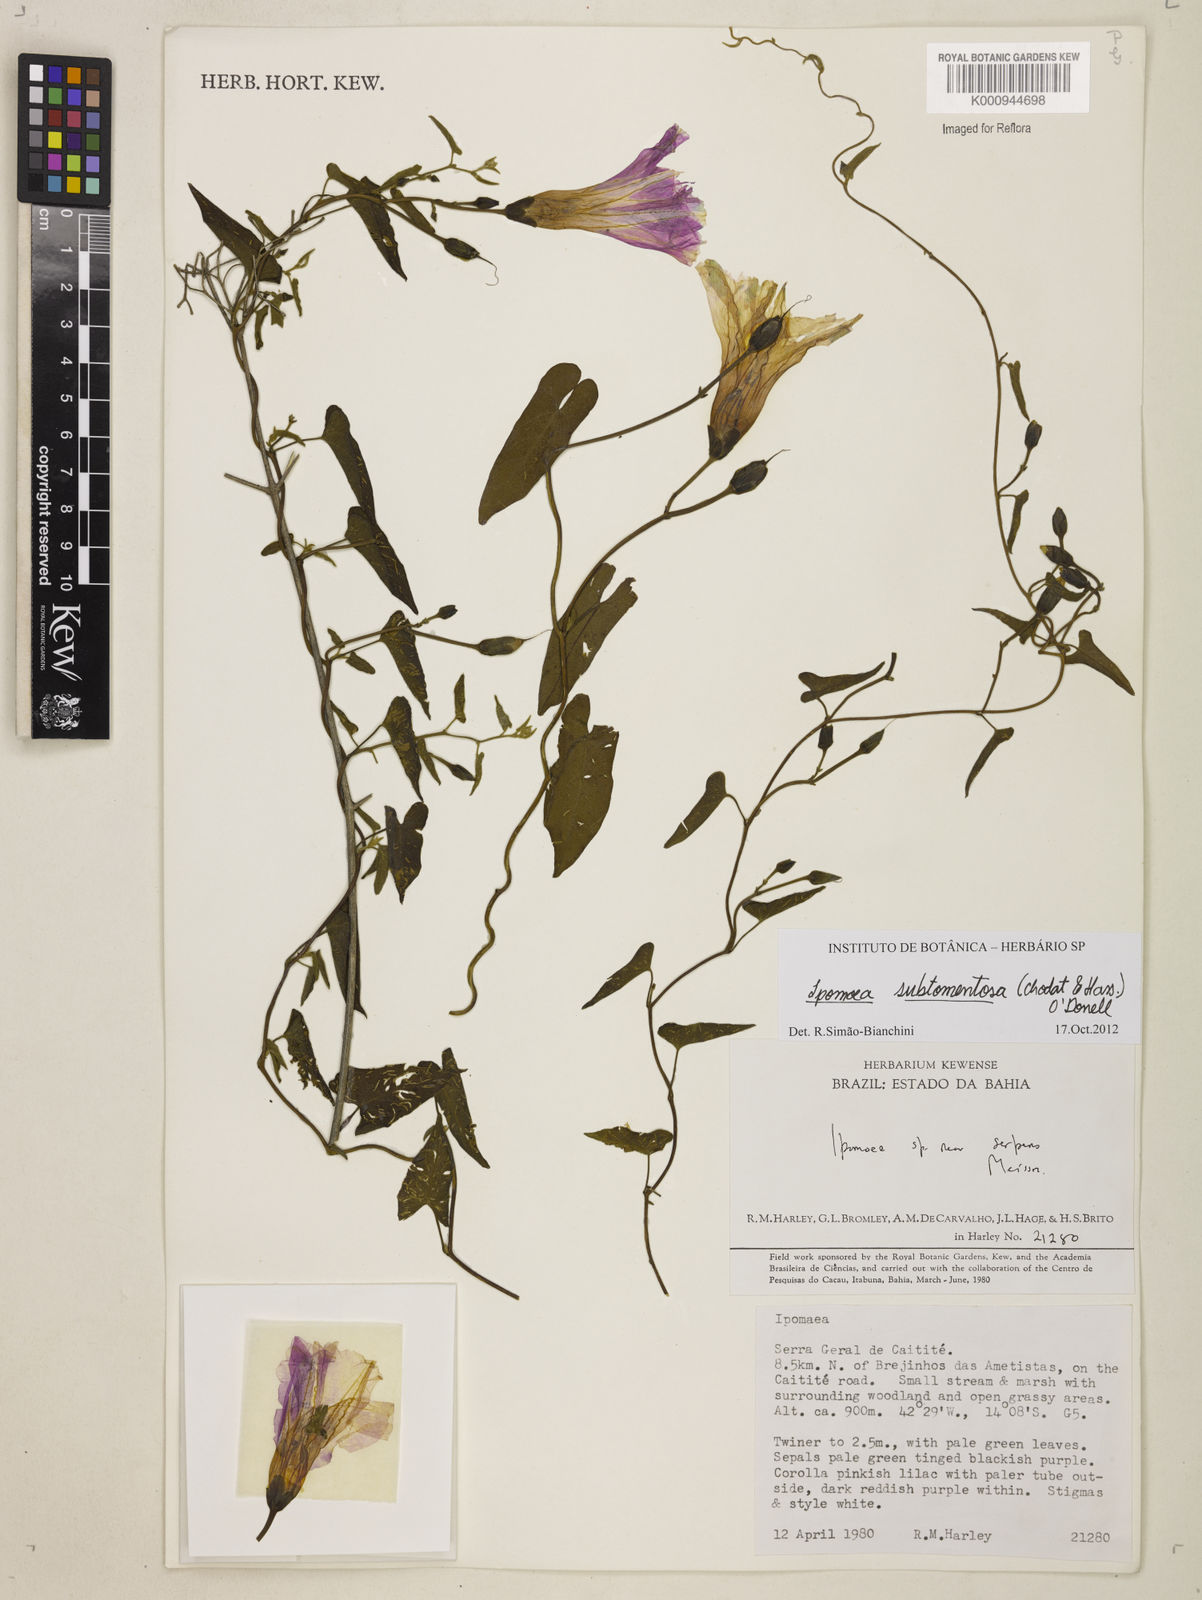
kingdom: Plantae
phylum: Tracheophyta
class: Magnoliopsida
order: Solanales
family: Convolvulaceae
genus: Ipomoea
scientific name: Ipomoea maurandioides
